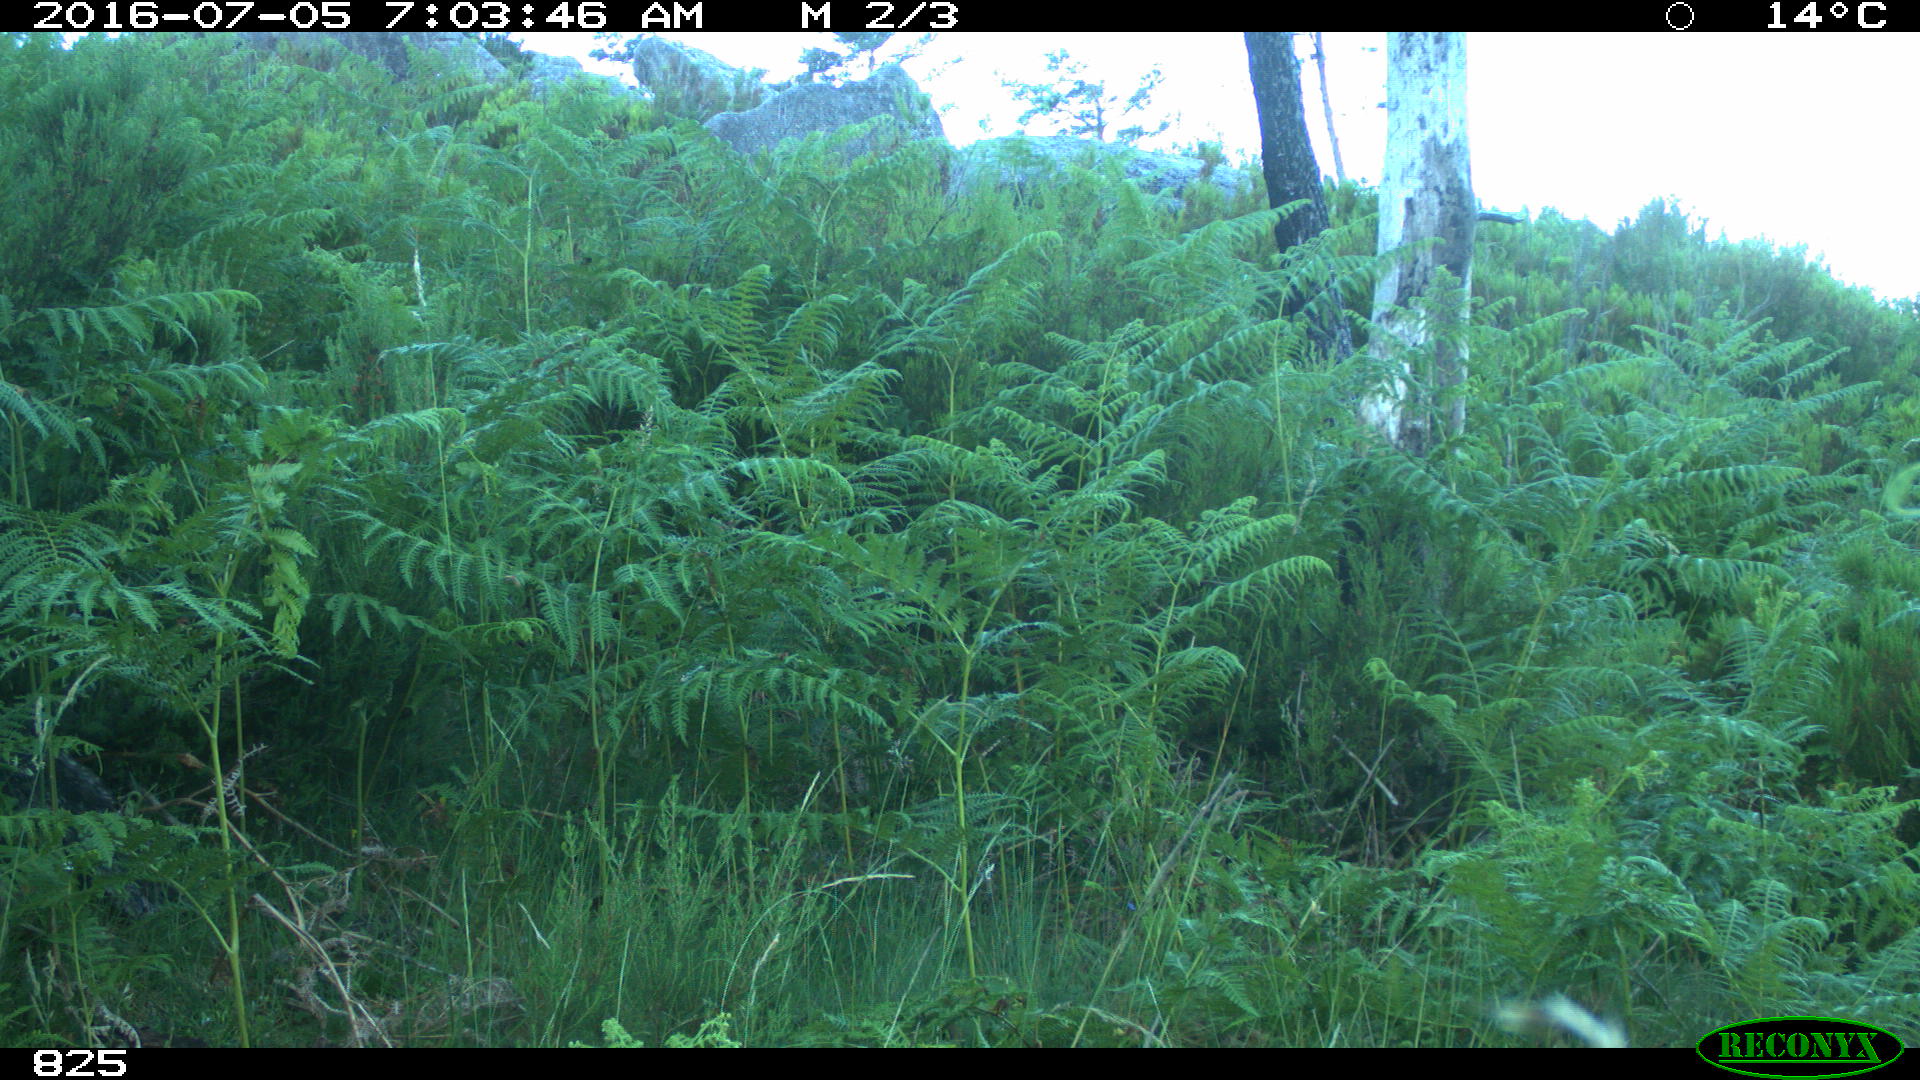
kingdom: Animalia
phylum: Chordata
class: Mammalia
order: Artiodactyla
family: Cervidae
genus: Capreolus
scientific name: Capreolus capreolus
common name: Western roe deer
